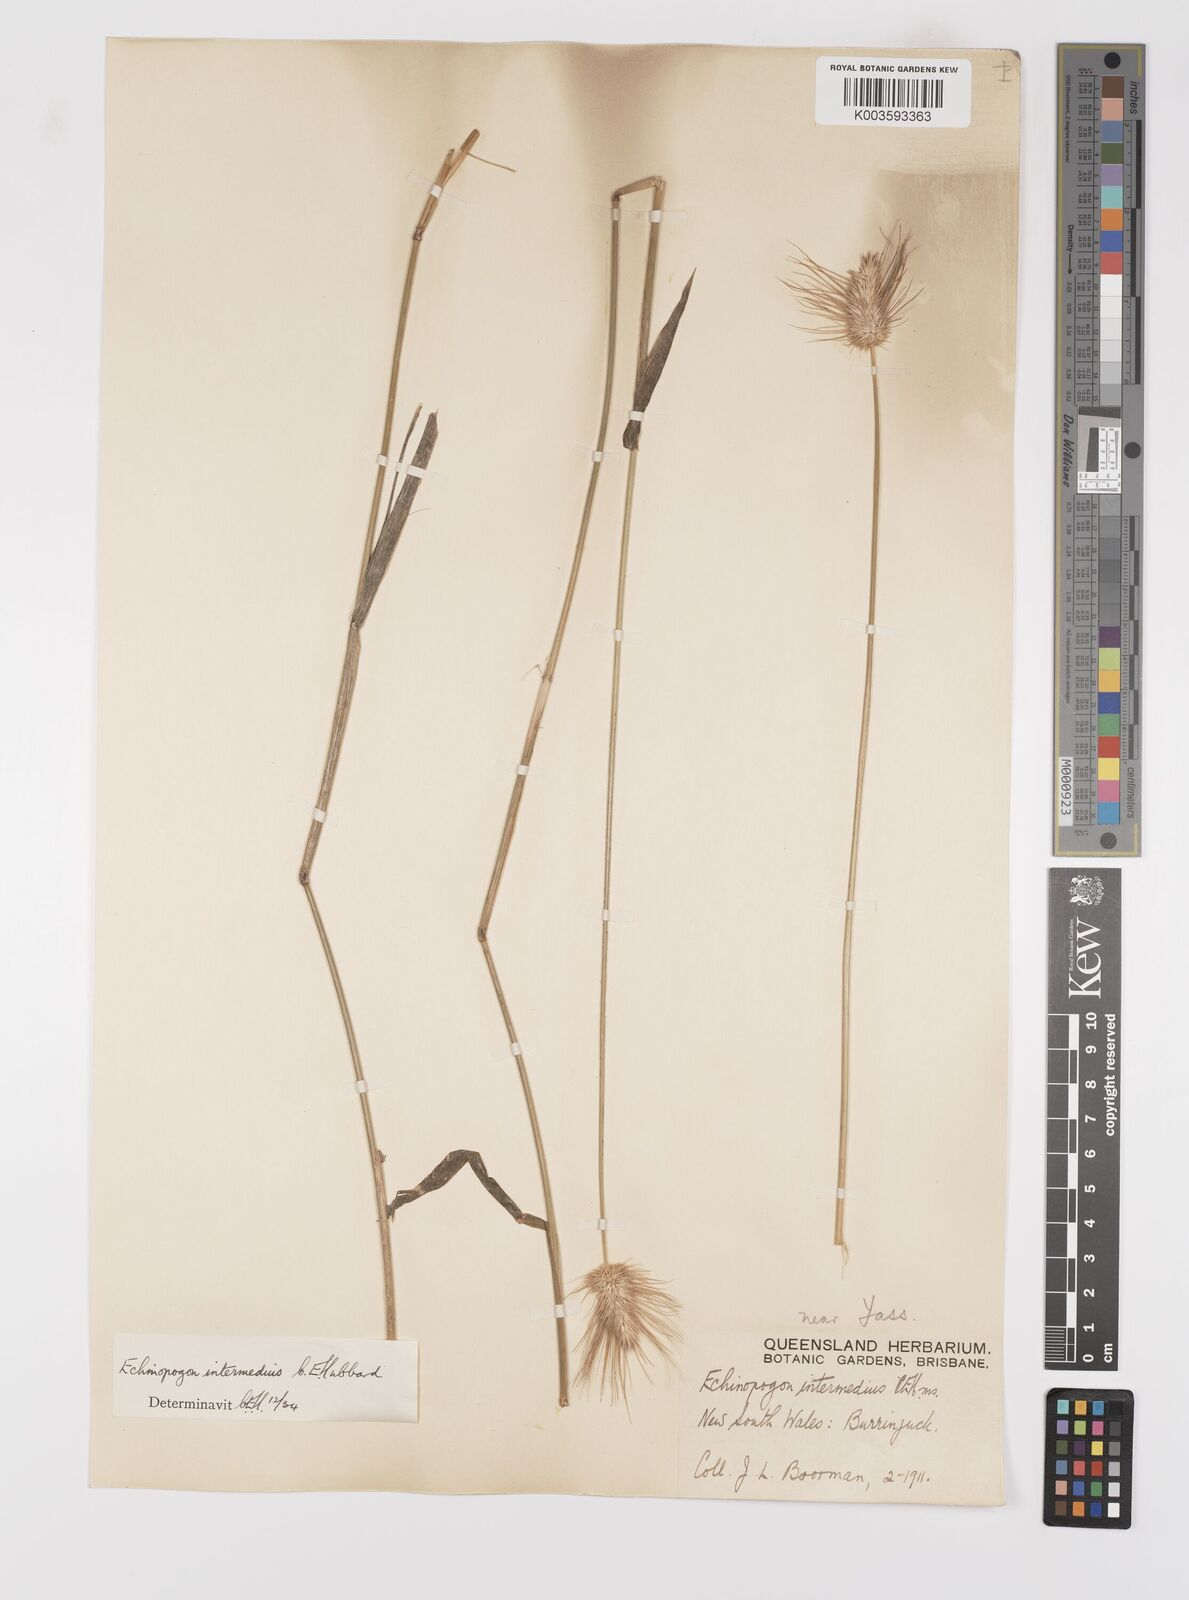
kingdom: Plantae
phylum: Tracheophyta
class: Liliopsida
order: Poales
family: Poaceae
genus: Echinopogon
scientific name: Echinopogon intermedius
